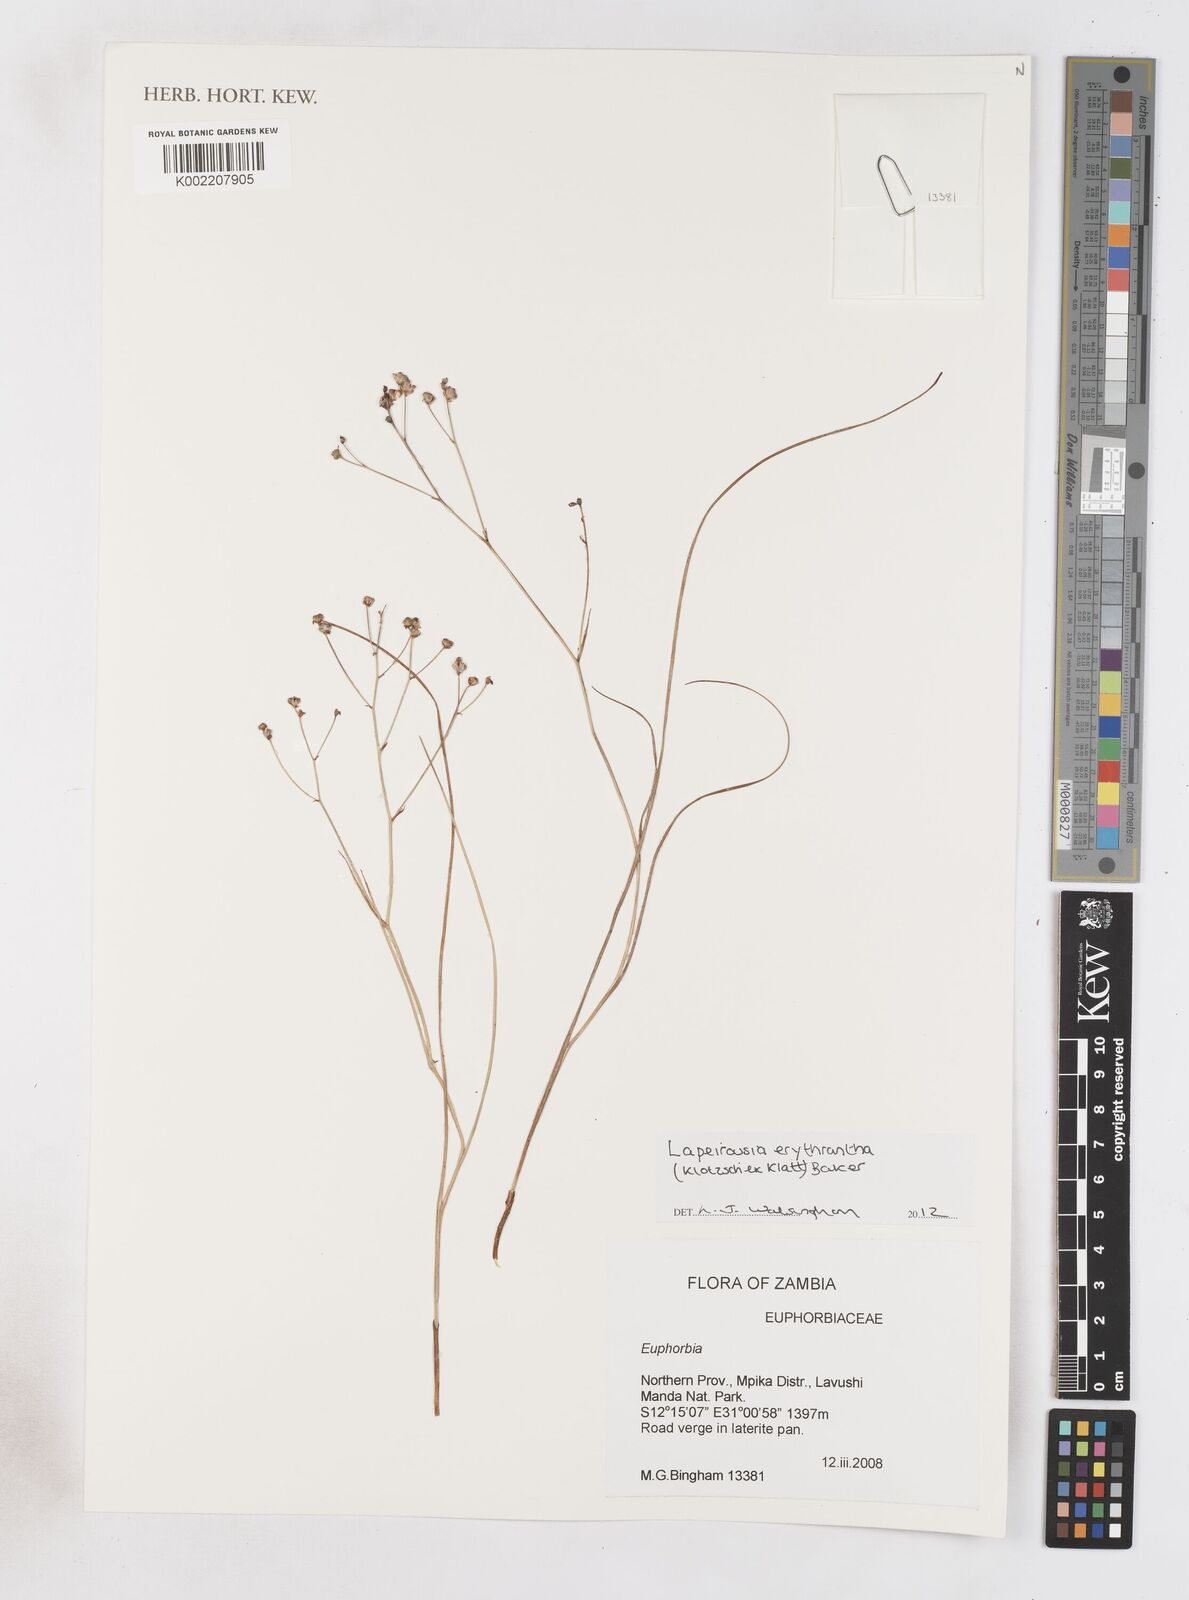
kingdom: Plantae
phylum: Tracheophyta
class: Liliopsida
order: Asparagales
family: Iridaceae
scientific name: Iridaceae
